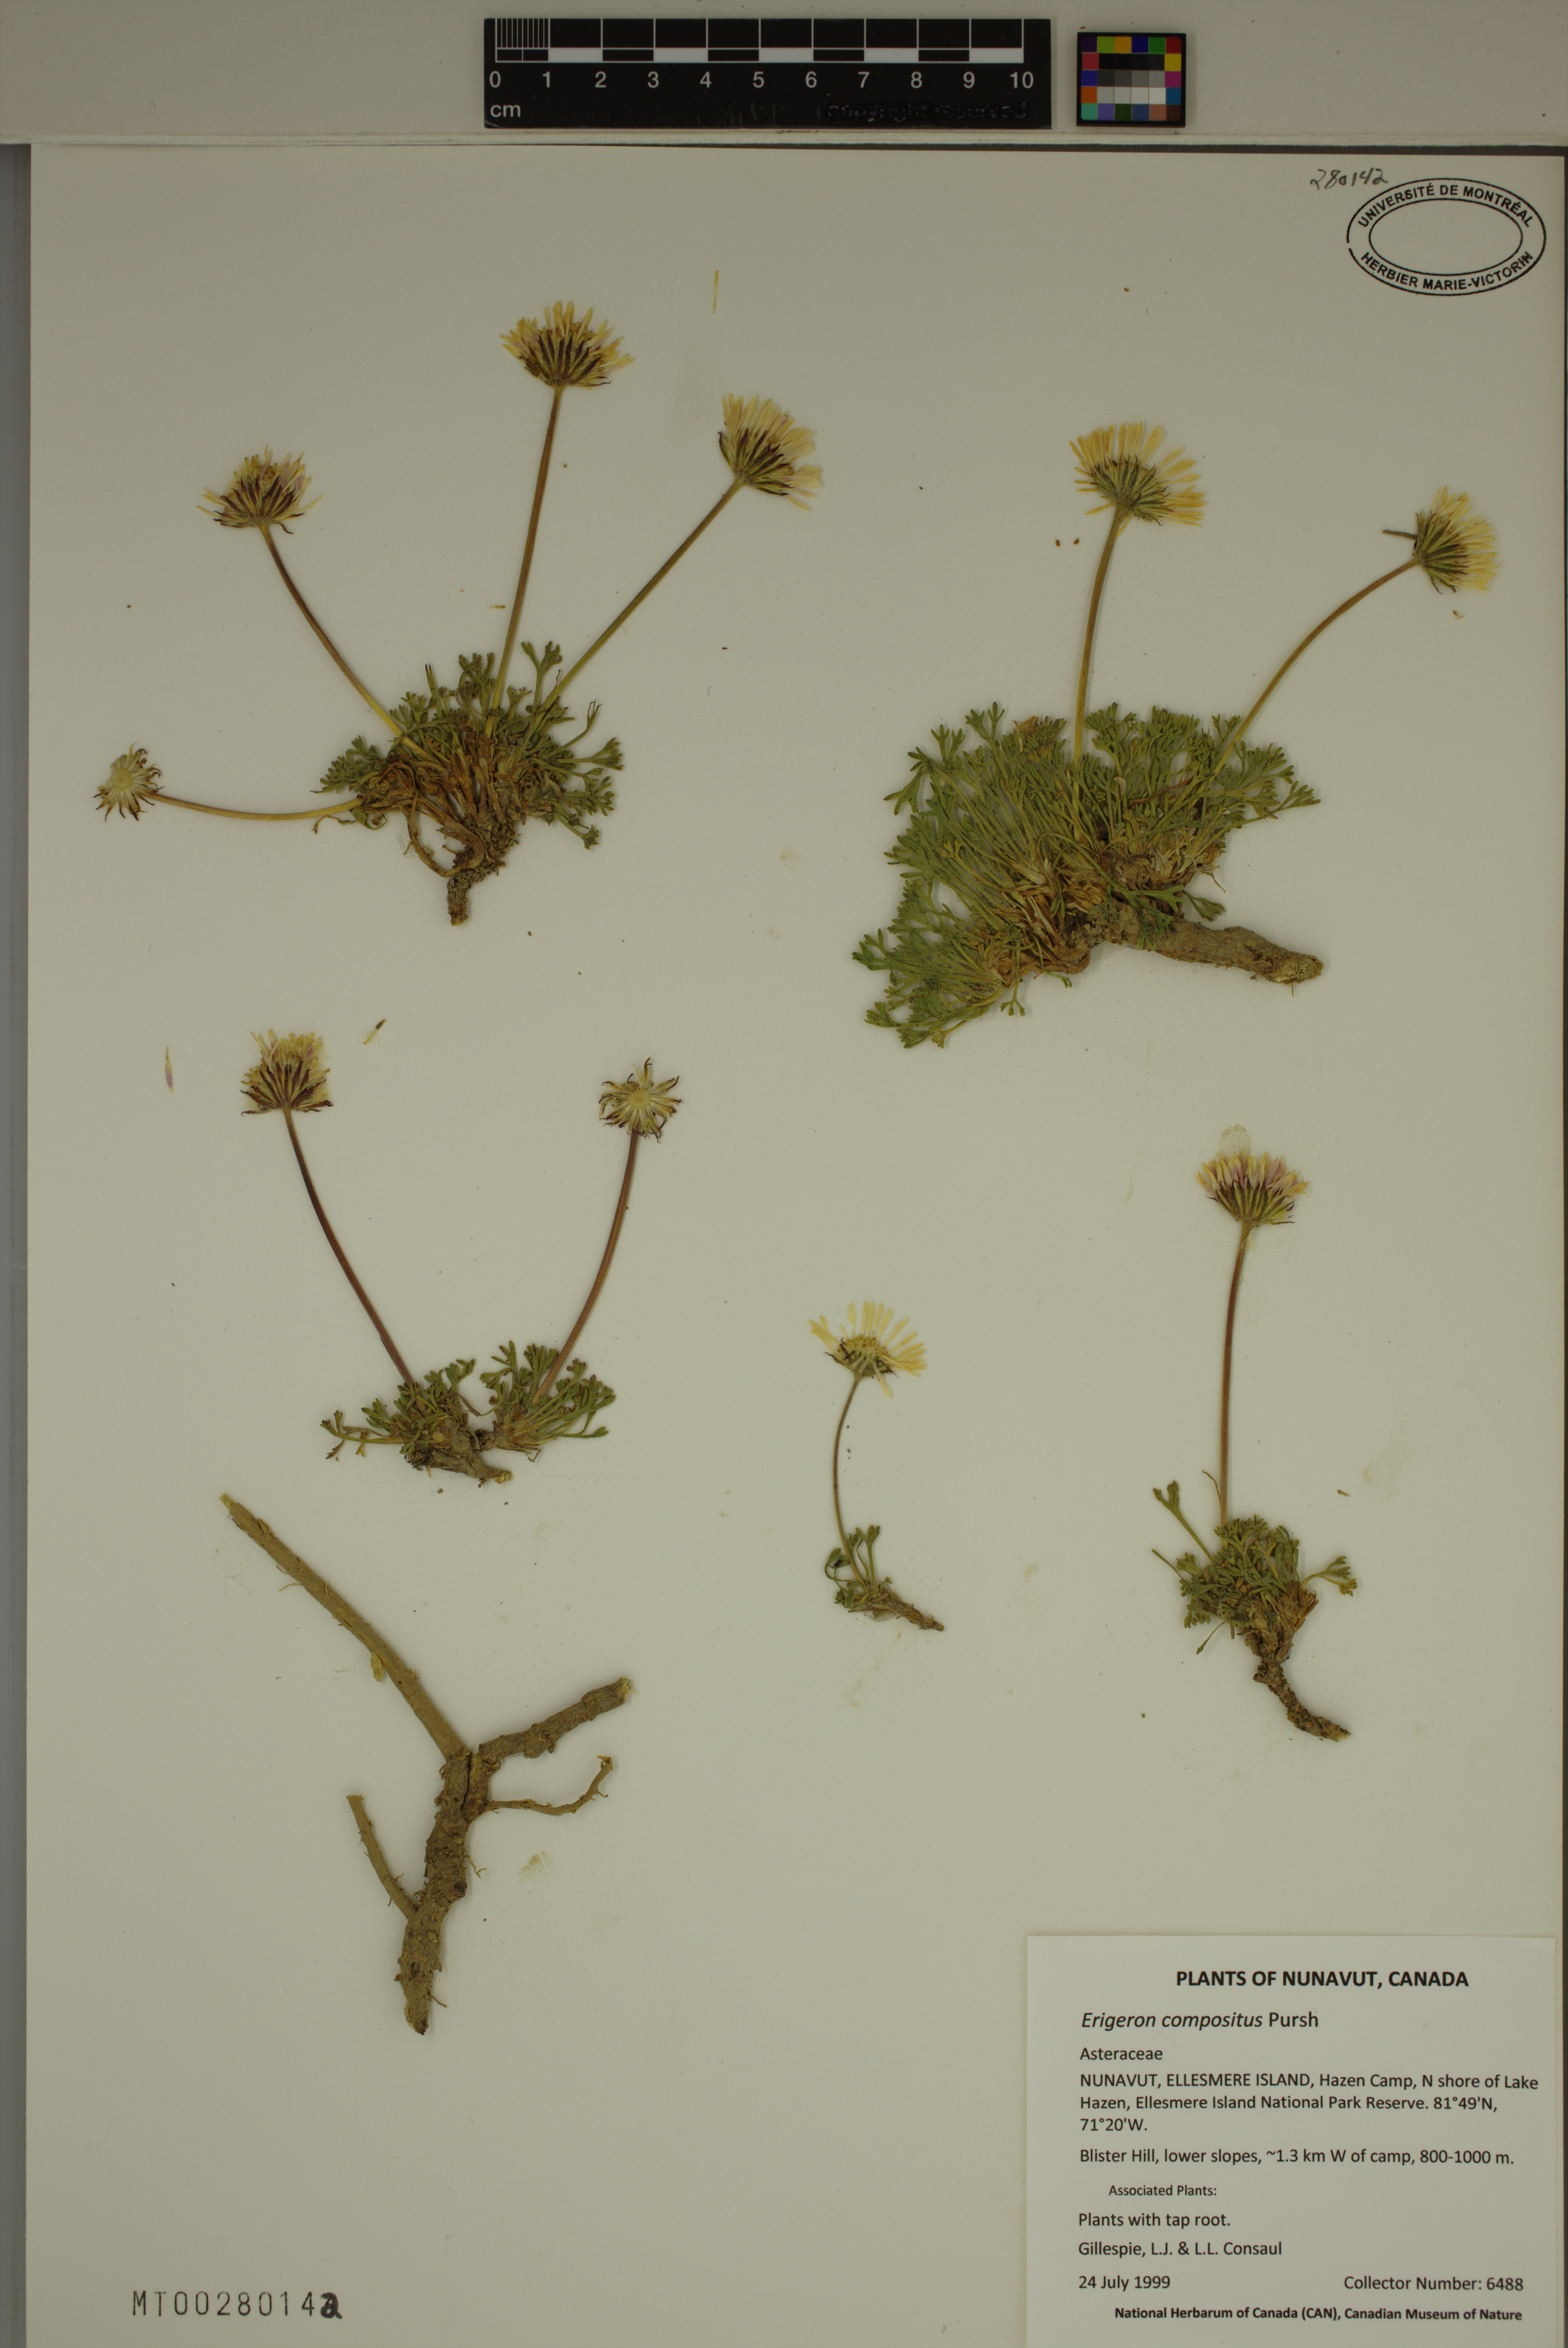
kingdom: Plantae
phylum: Tracheophyta
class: Magnoliopsida
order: Asterales
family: Asteraceae
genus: Erigeron
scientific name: Erigeron compositus
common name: Dwarf mountain fleabane
